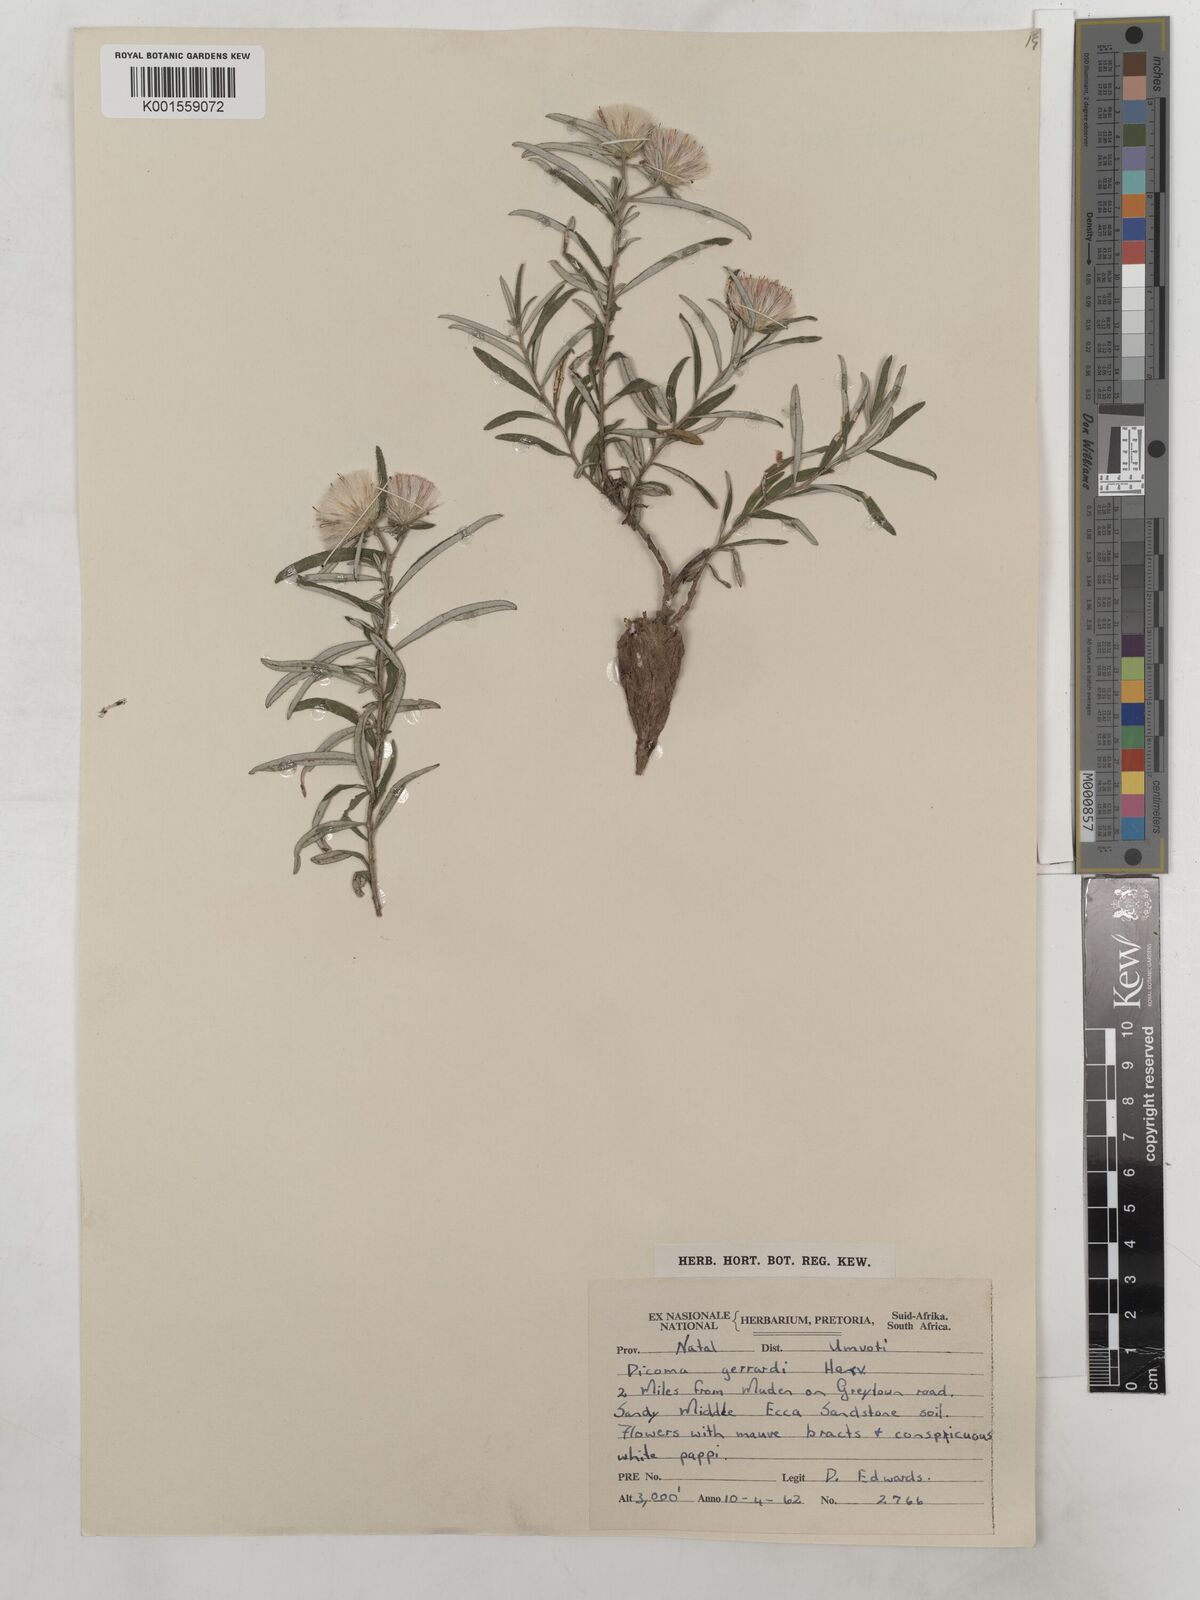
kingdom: Plantae
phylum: Tracheophyta
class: Magnoliopsida
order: Asterales
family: Asteraceae
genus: Dicoma
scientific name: Dicoma anomala
